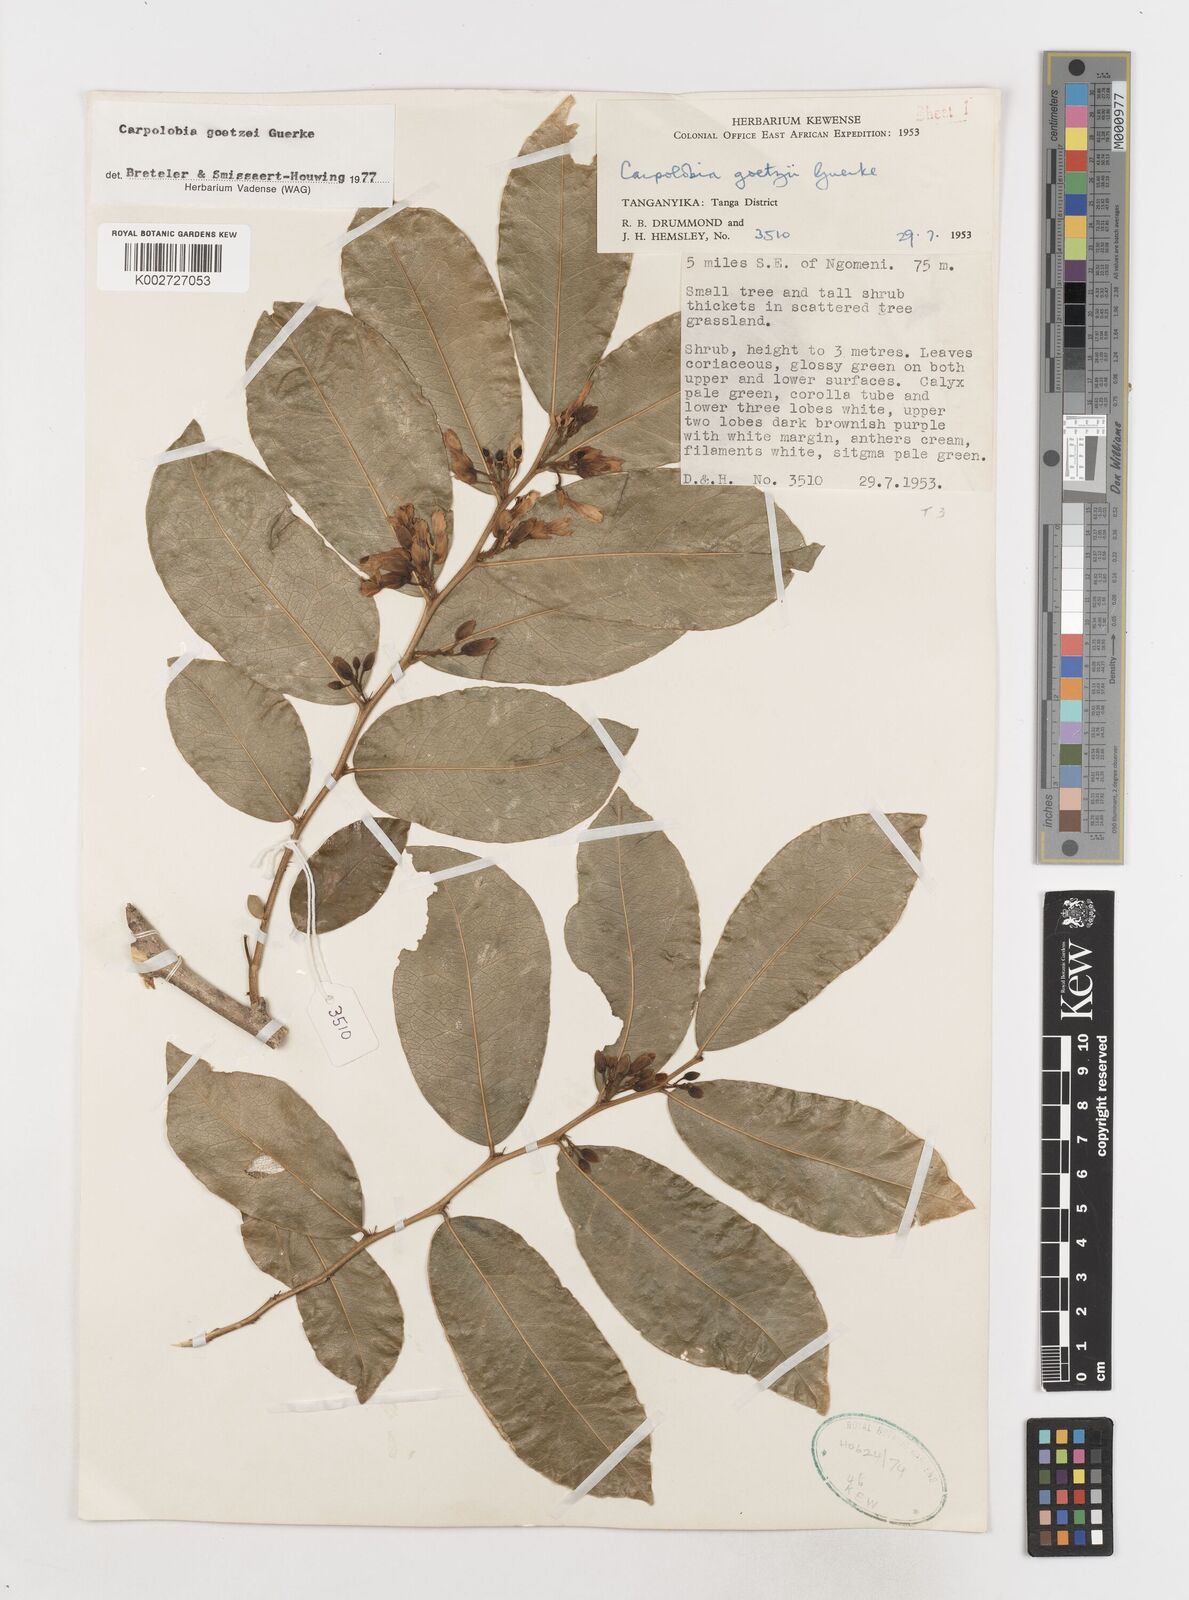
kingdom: Plantae
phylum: Tracheophyta
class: Magnoliopsida
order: Fabales
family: Polygalaceae
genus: Carpolobia
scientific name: Carpolobia goetzei
